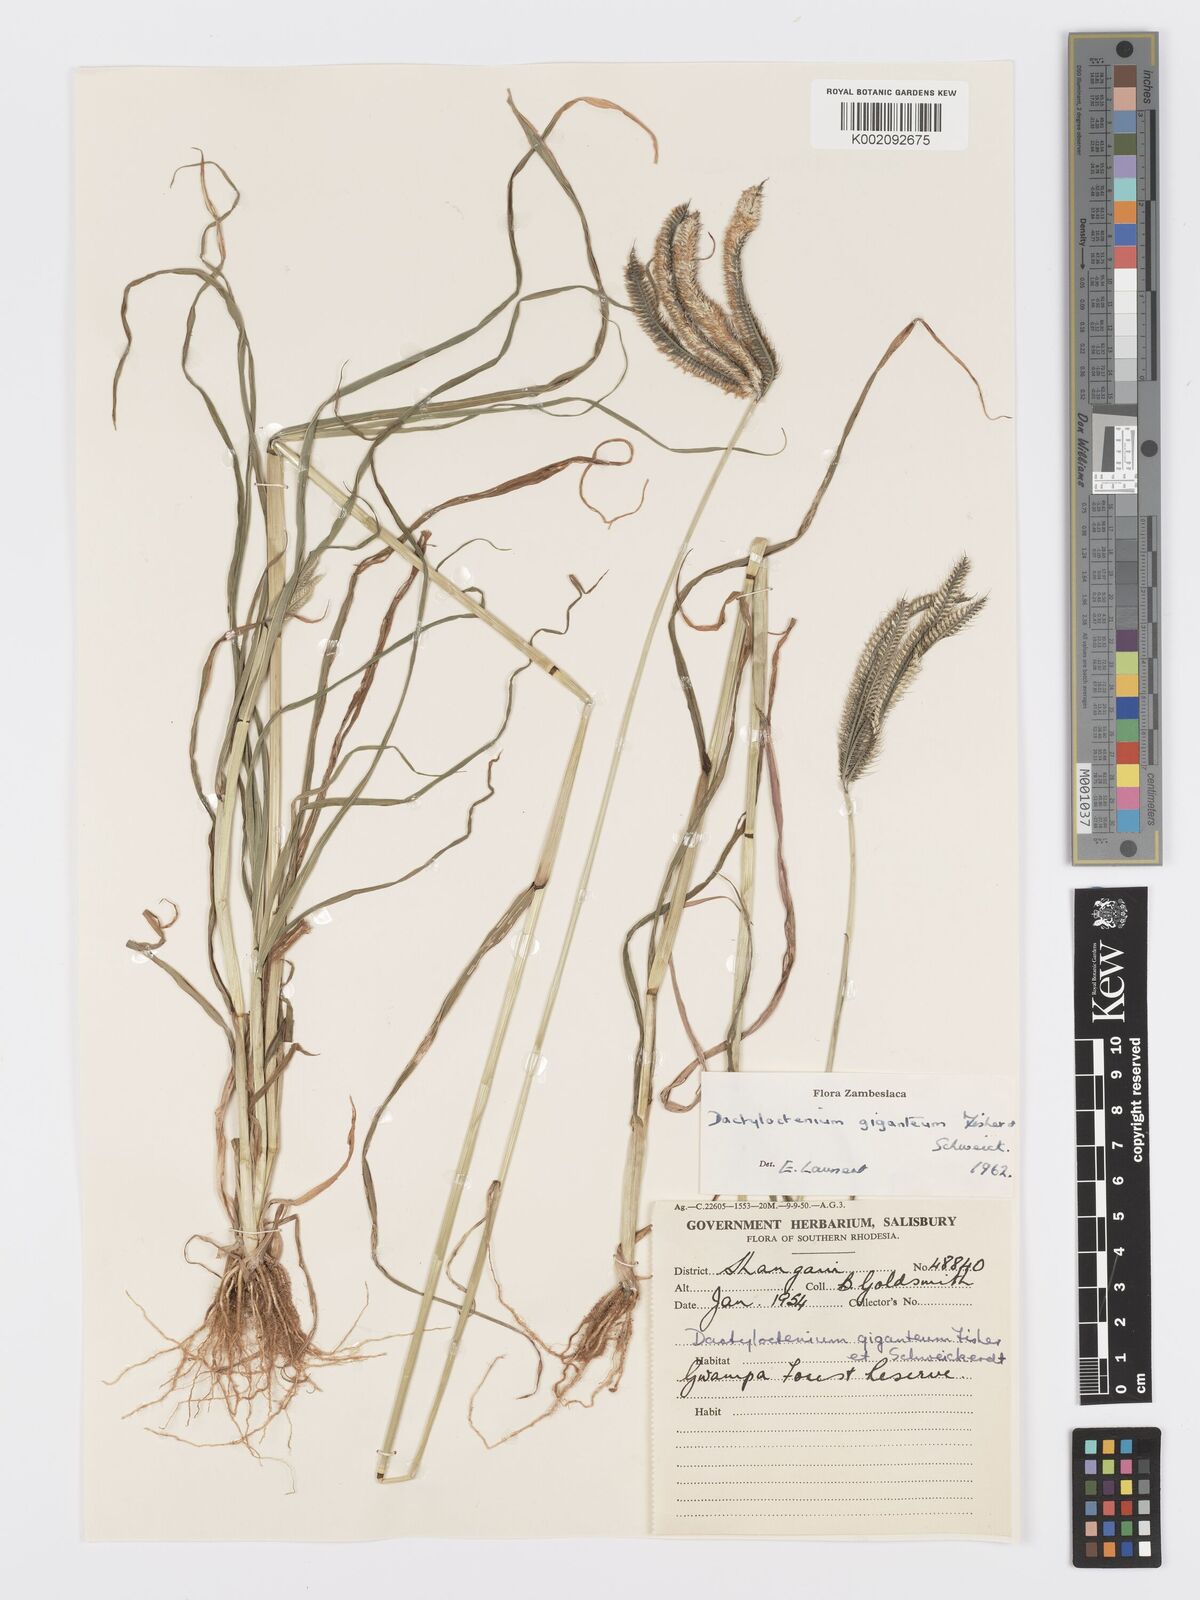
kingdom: Plantae
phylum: Tracheophyta
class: Liliopsida
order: Poales
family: Poaceae
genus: Dactyloctenium
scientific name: Dactyloctenium giganteum
